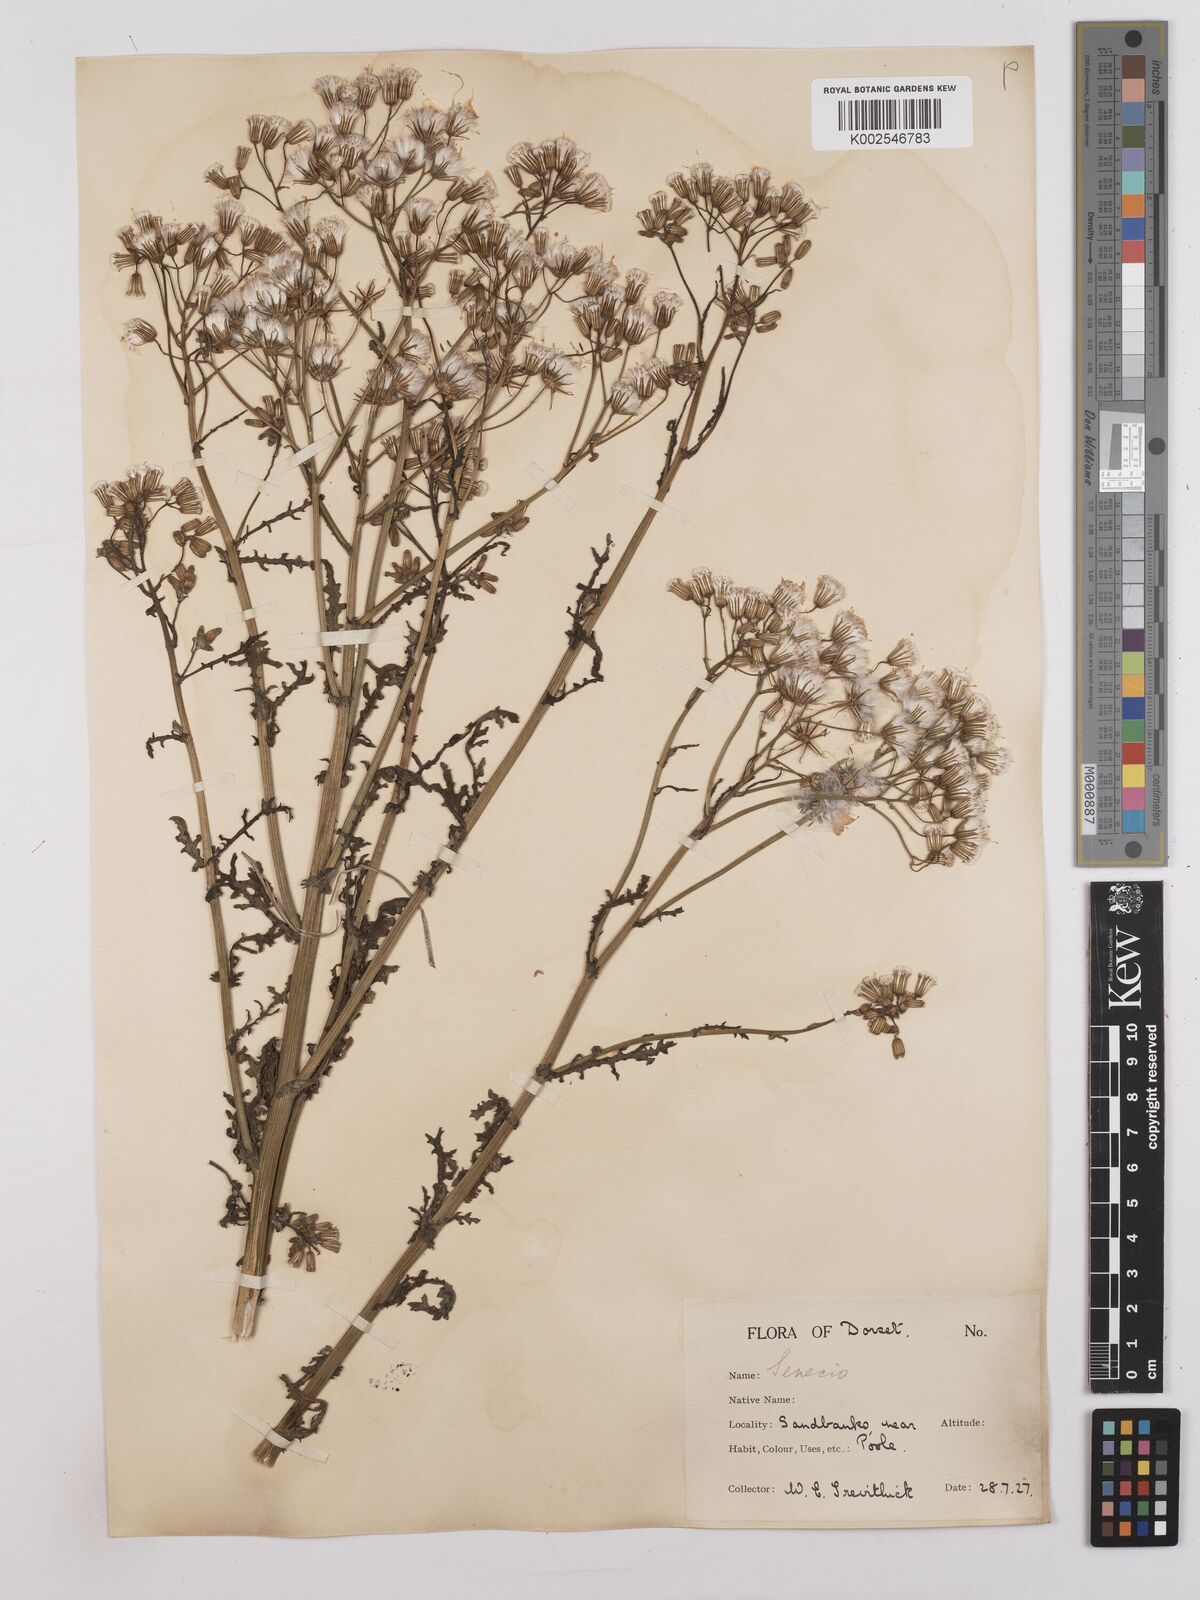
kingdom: Plantae
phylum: Tracheophyta
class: Magnoliopsida
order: Asterales
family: Asteraceae
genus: Senecio
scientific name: Senecio sylvaticus
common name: Woodland ragwort
